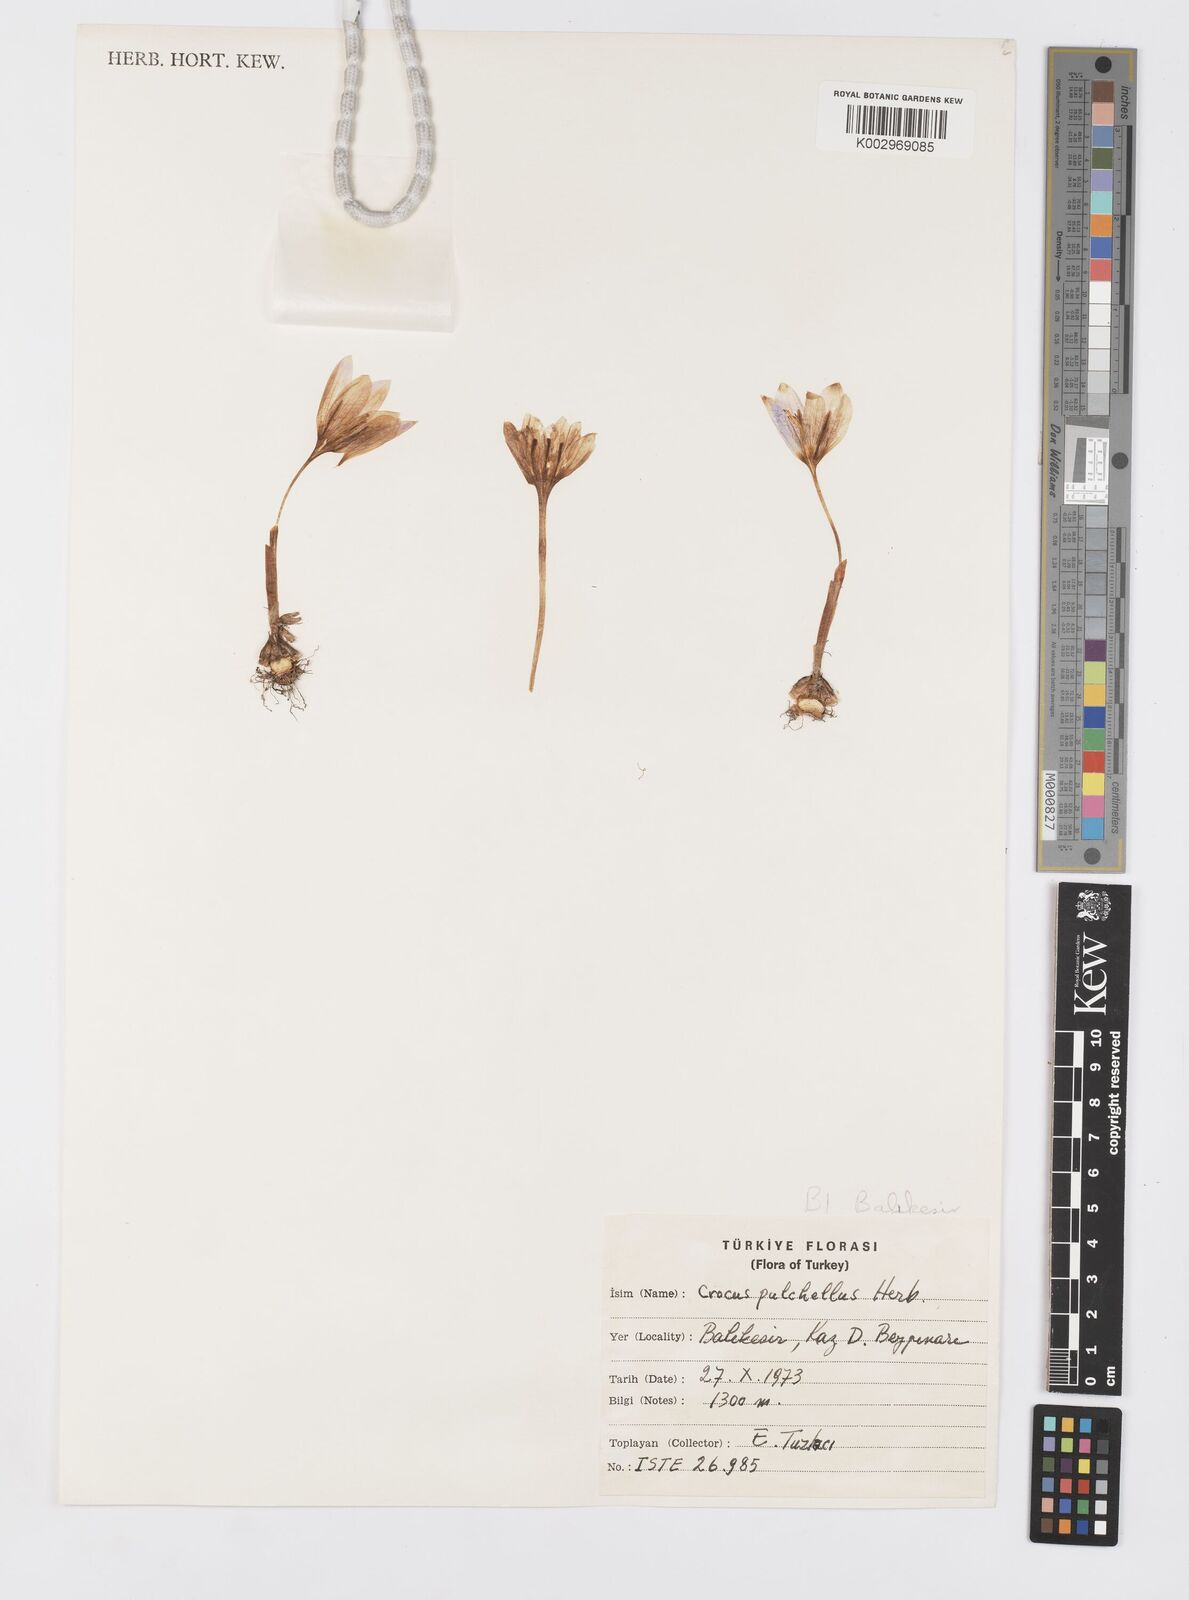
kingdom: Plantae
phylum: Tracheophyta
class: Liliopsida
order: Asparagales
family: Iridaceae
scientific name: Iridaceae
